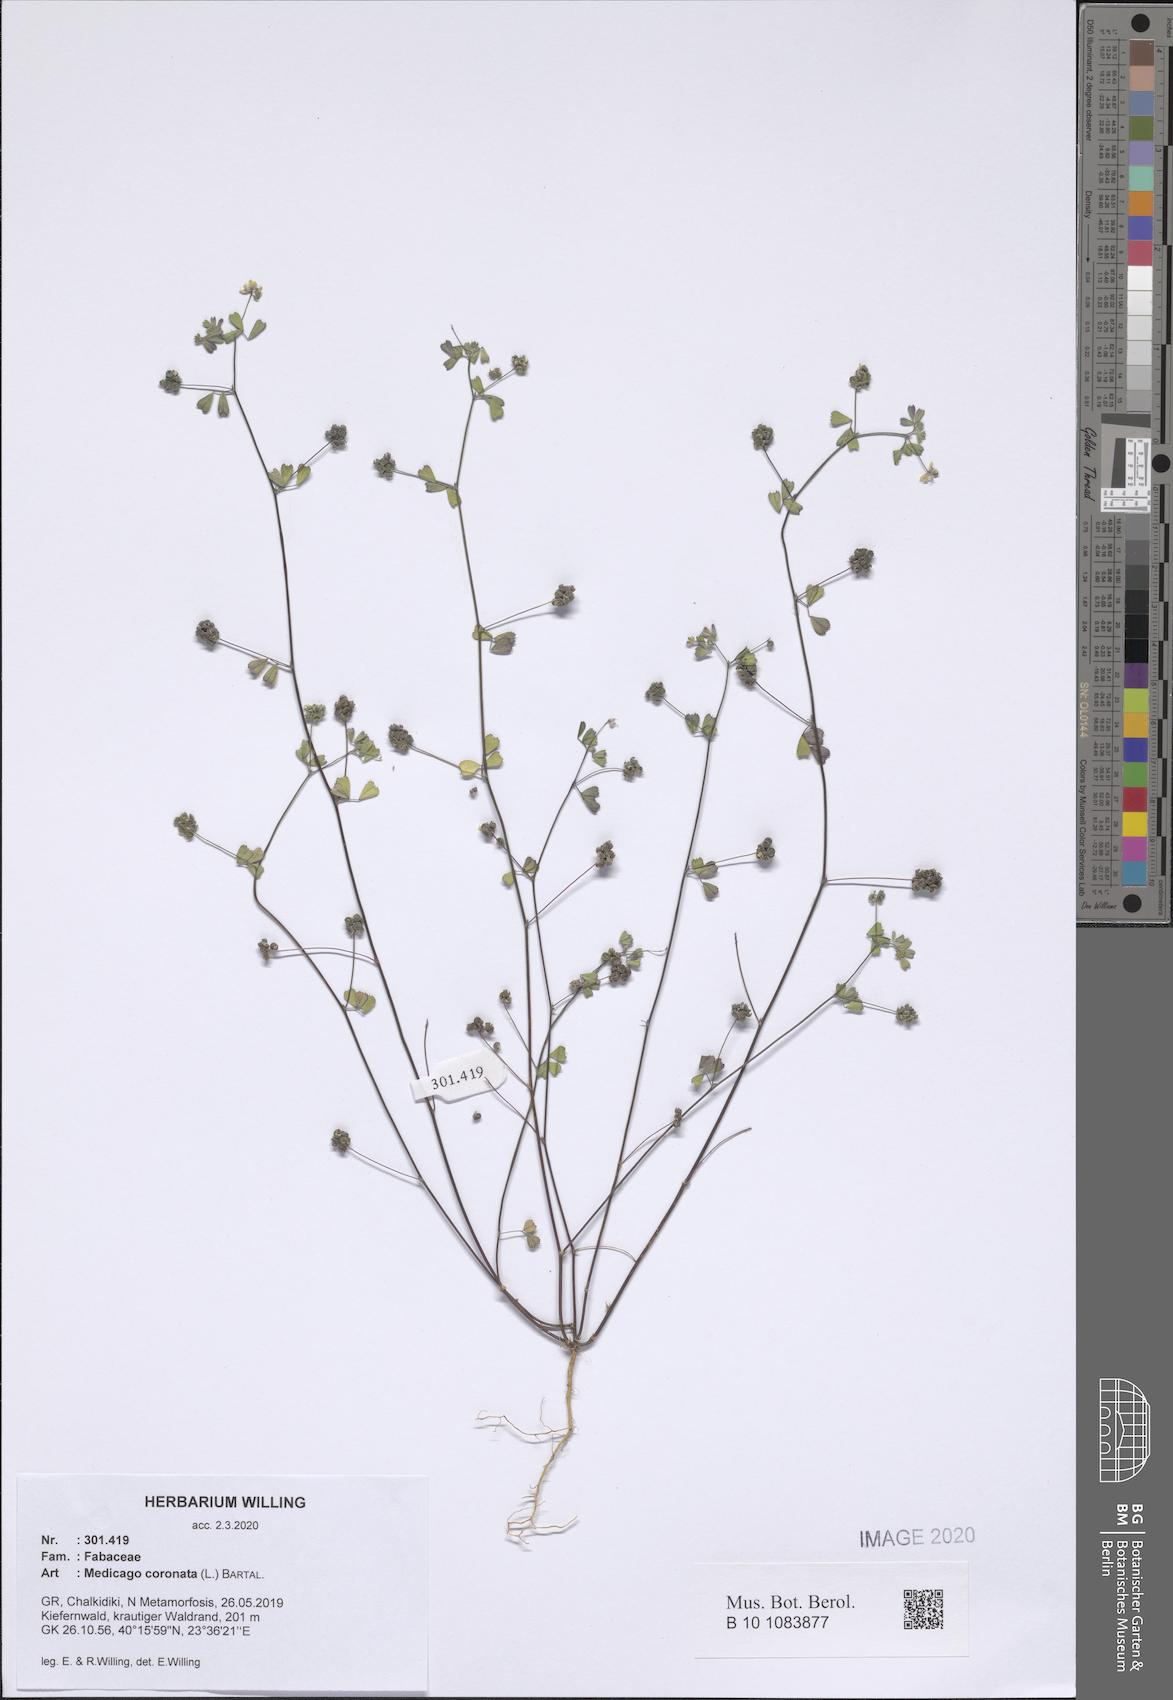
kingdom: Plantae
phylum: Tracheophyta
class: Magnoliopsida
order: Fabales
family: Fabaceae
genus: Medicago
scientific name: Medicago coronata
